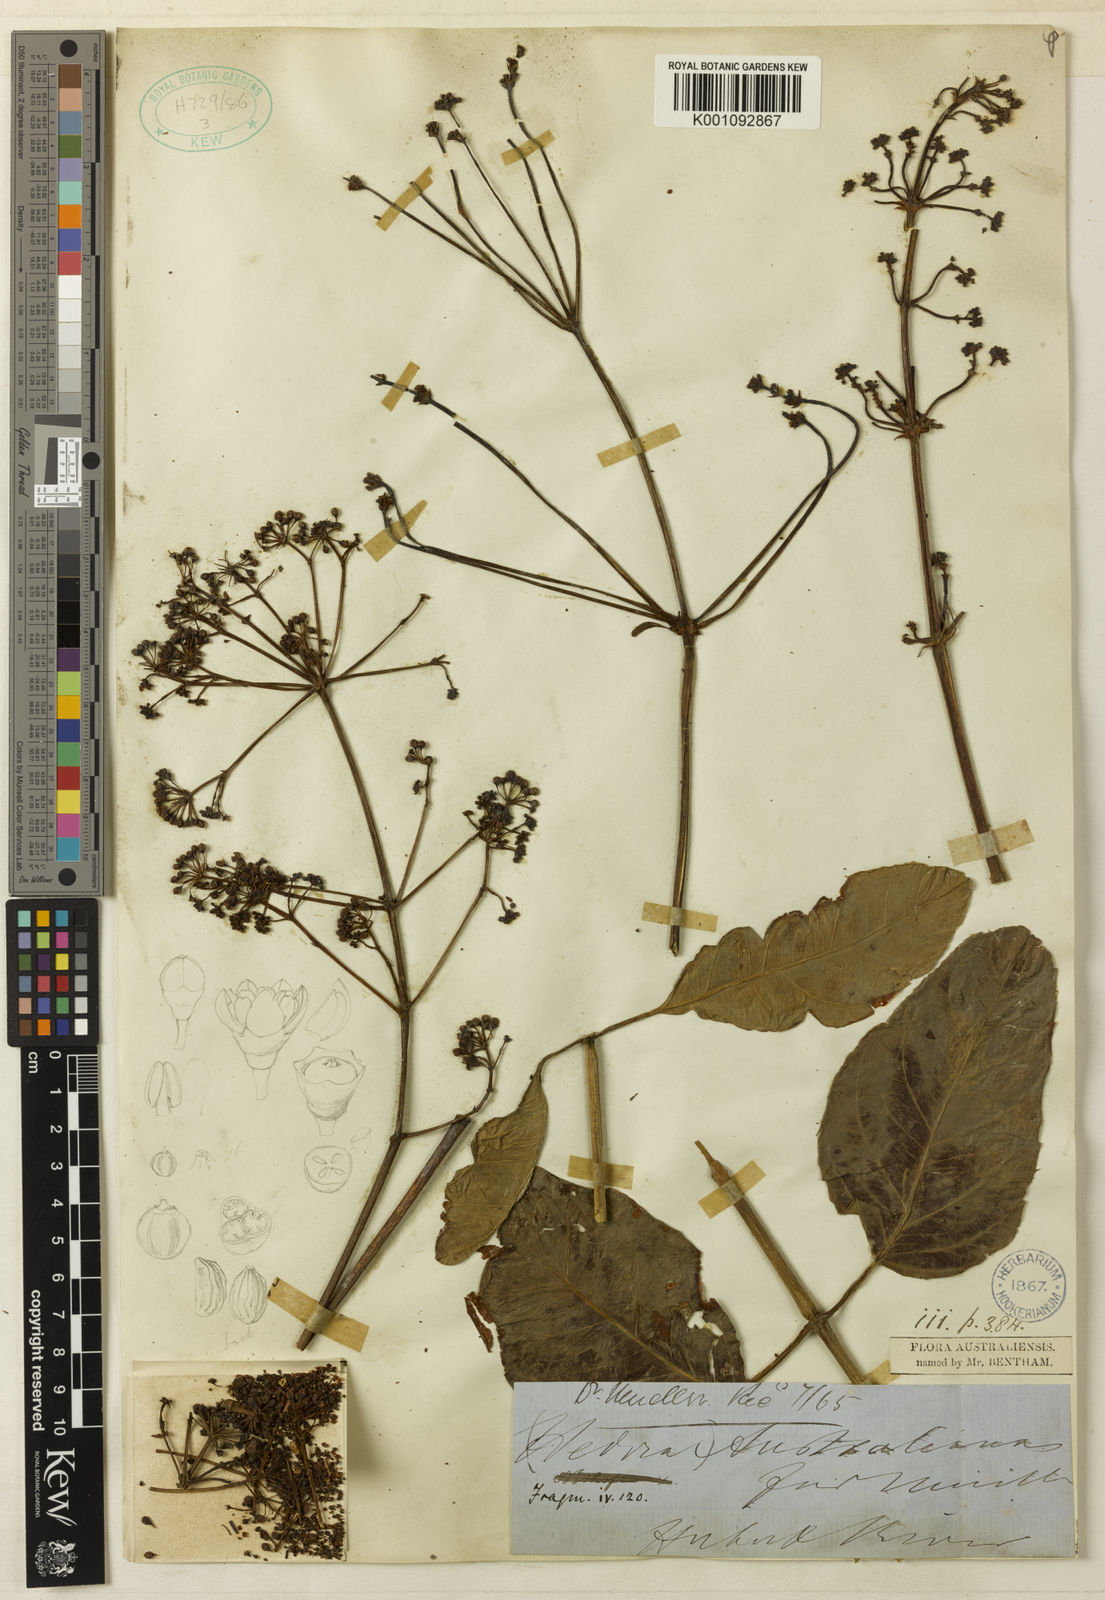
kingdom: Plantae
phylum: Tracheophyta
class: Magnoliopsida
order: Apiales
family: Araliaceae
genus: Polyscias
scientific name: Polyscias australiana
